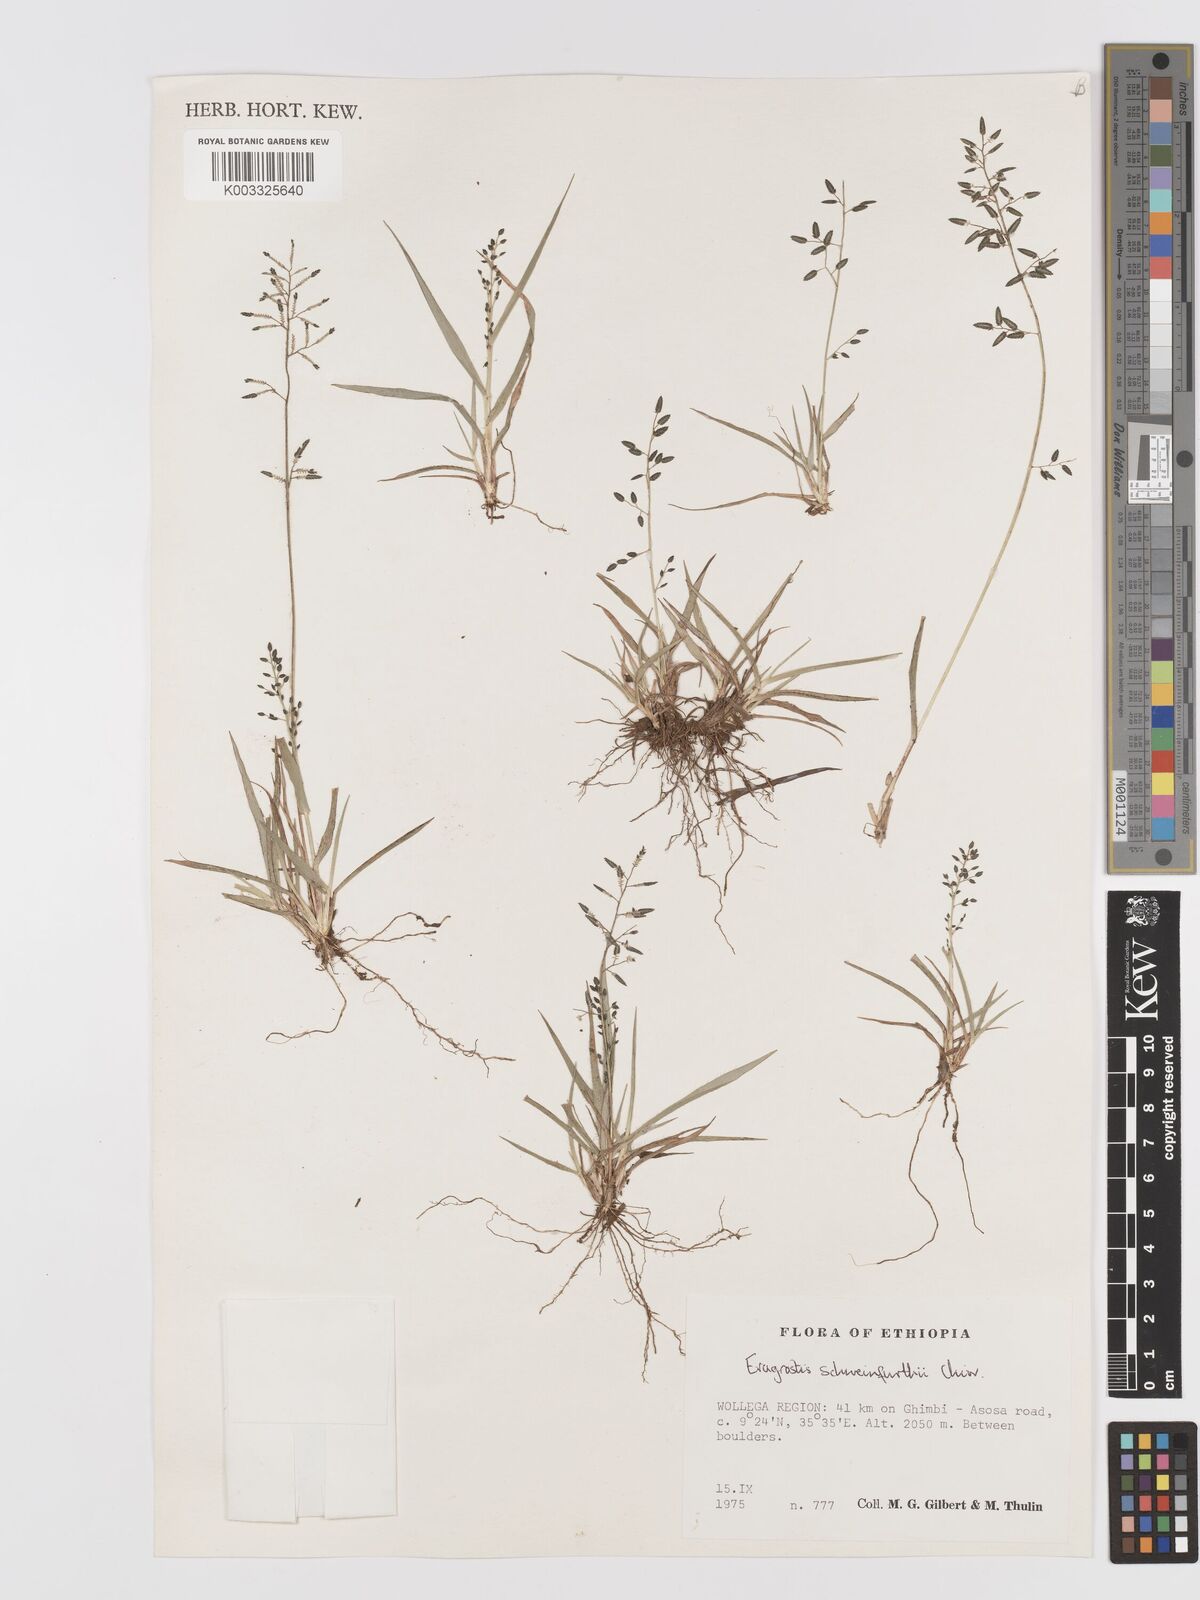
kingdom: Plantae
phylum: Tracheophyta
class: Liliopsida
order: Poales
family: Poaceae
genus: Eragrostis
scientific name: Eragrostis schweinfurthii
